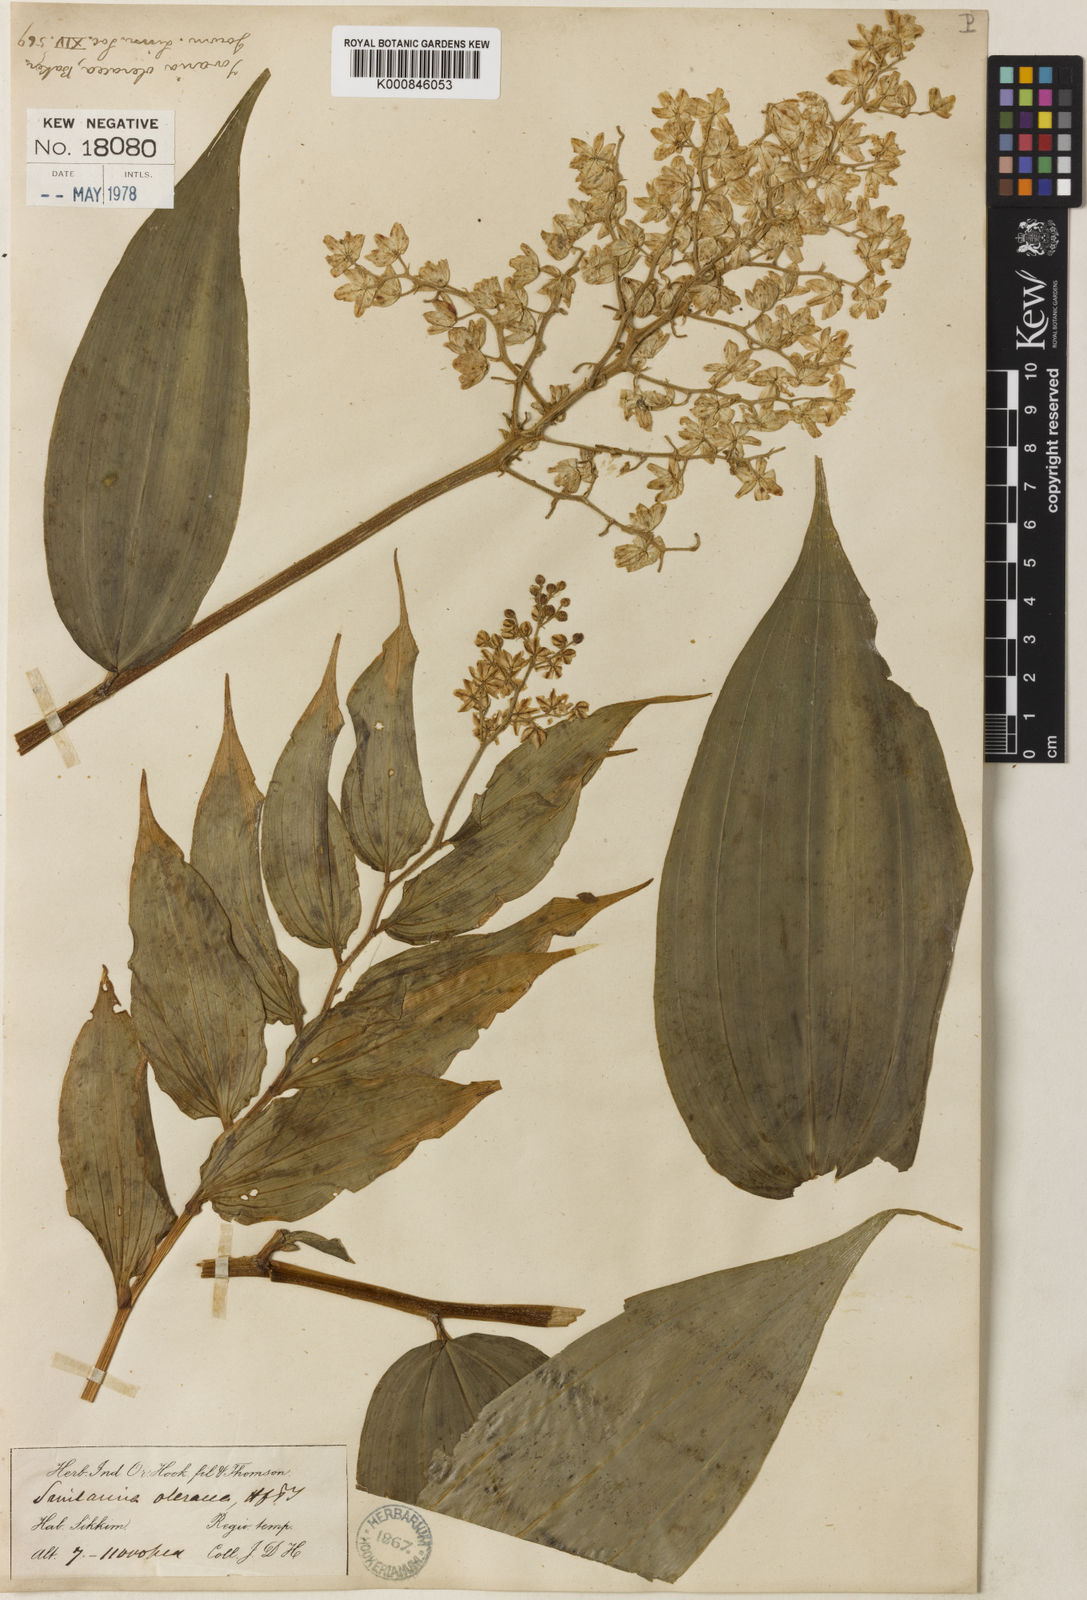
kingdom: Plantae
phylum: Tracheophyta
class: Liliopsida
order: Asparagales
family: Asparagaceae
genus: Maianthemum
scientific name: Maianthemum oleraceum
